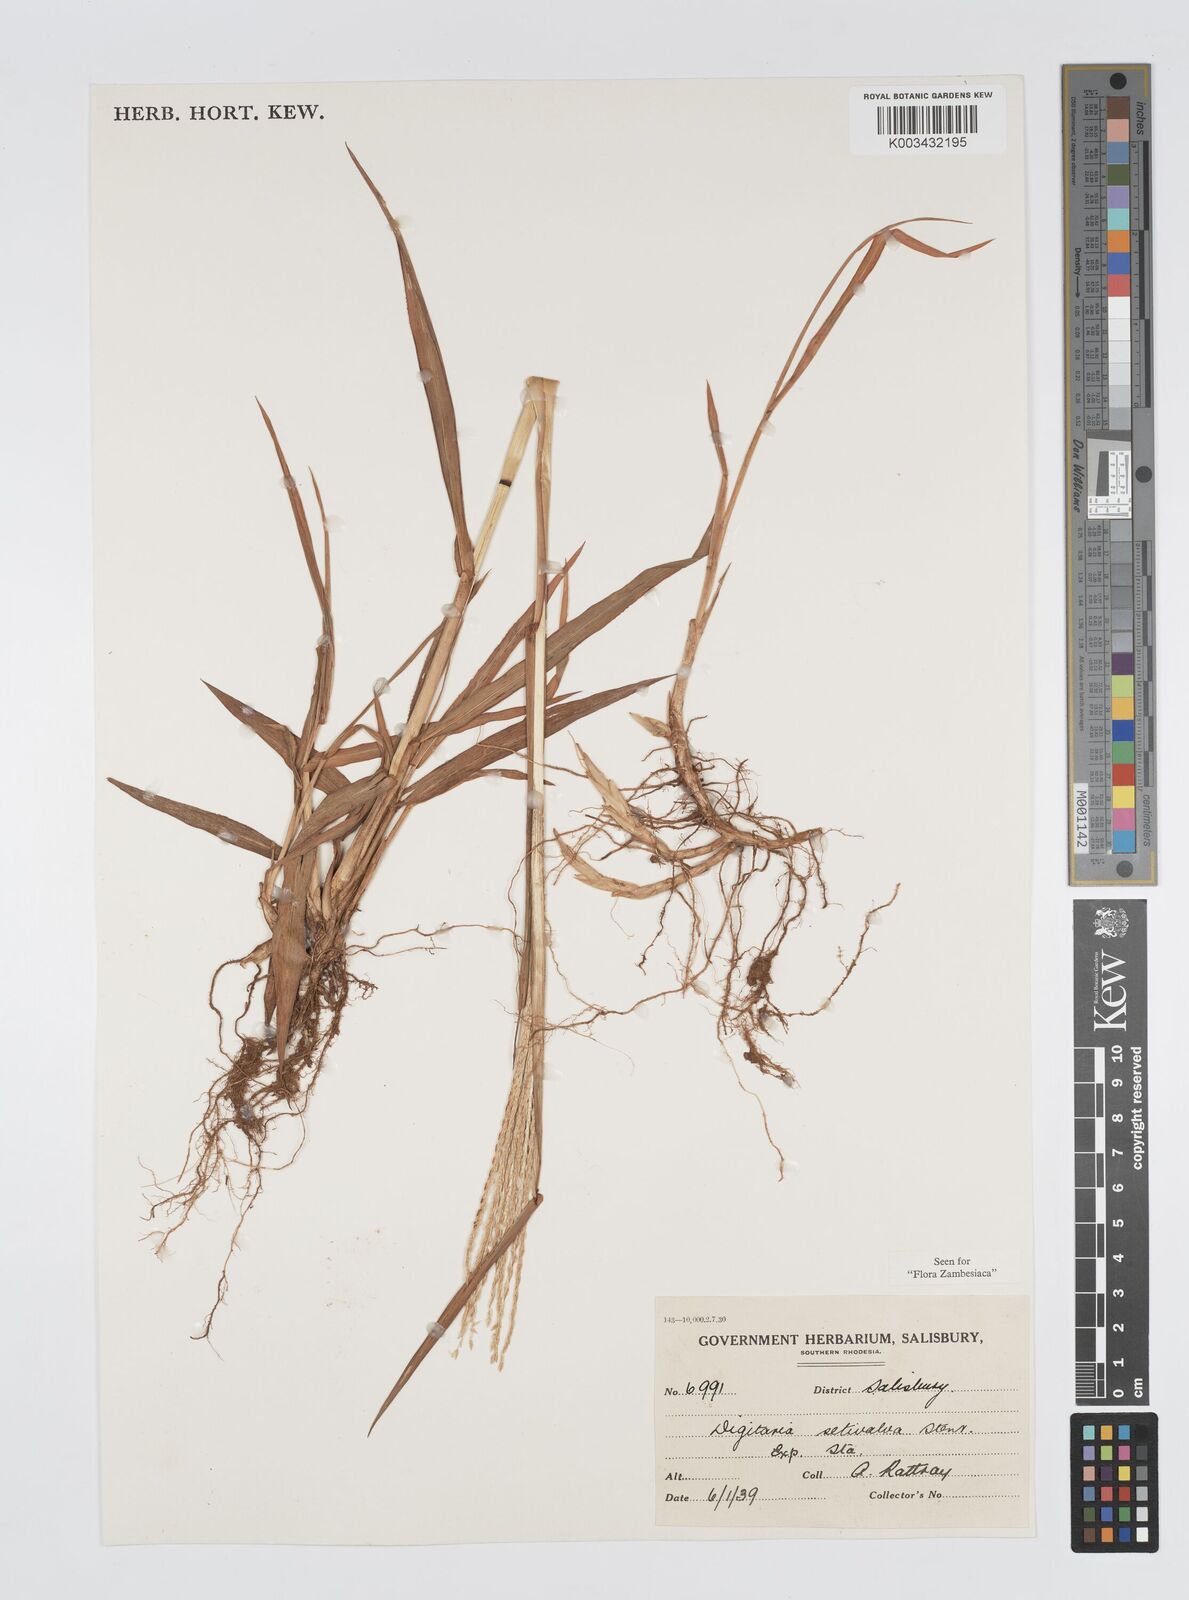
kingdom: Plantae
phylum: Tracheophyta
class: Liliopsida
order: Poales
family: Poaceae
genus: Digitaria
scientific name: Digitaria milanjiana
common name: Madagascar crabgrass
